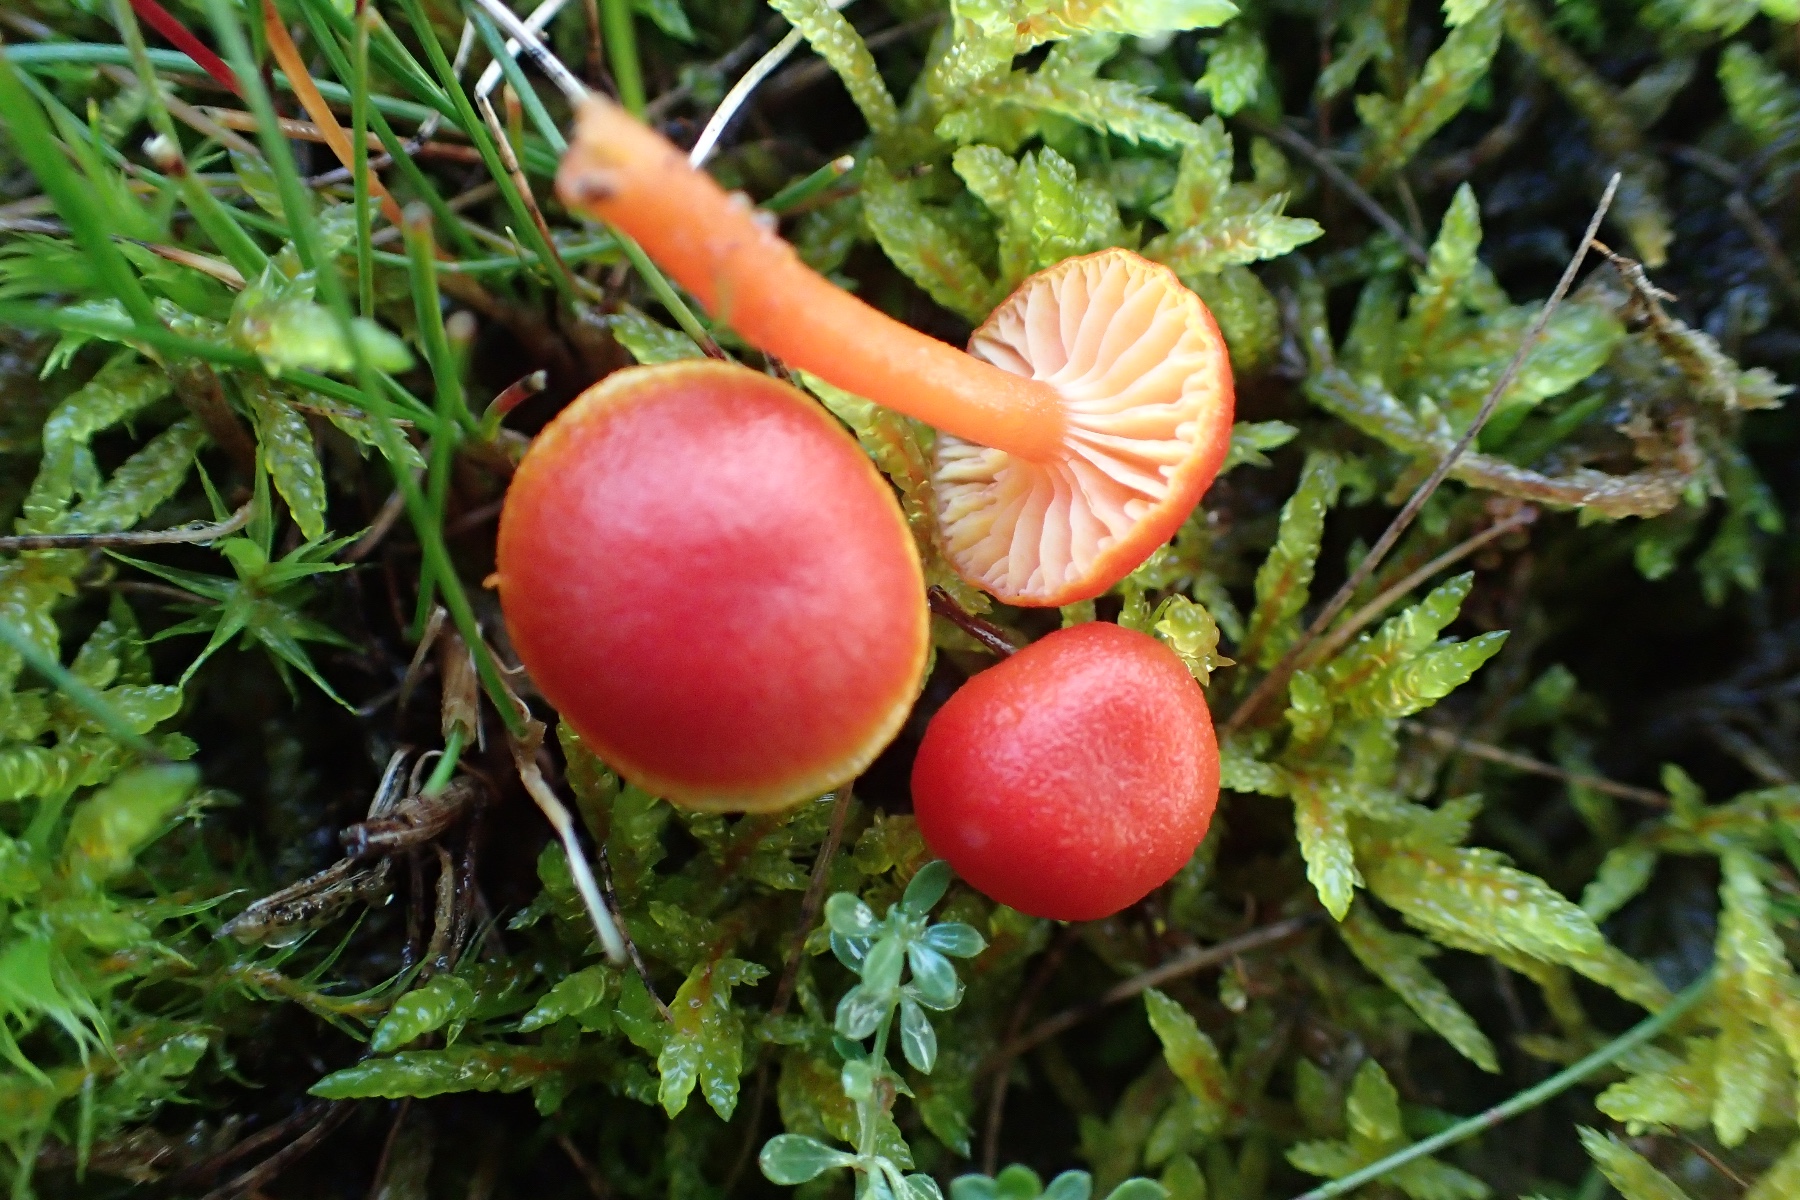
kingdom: Fungi
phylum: Basidiomycota
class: Agaricomycetes
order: Agaricales
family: Hygrophoraceae
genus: Hygrocybe
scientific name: Hygrocybe miniata
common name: mønje-vokshat
